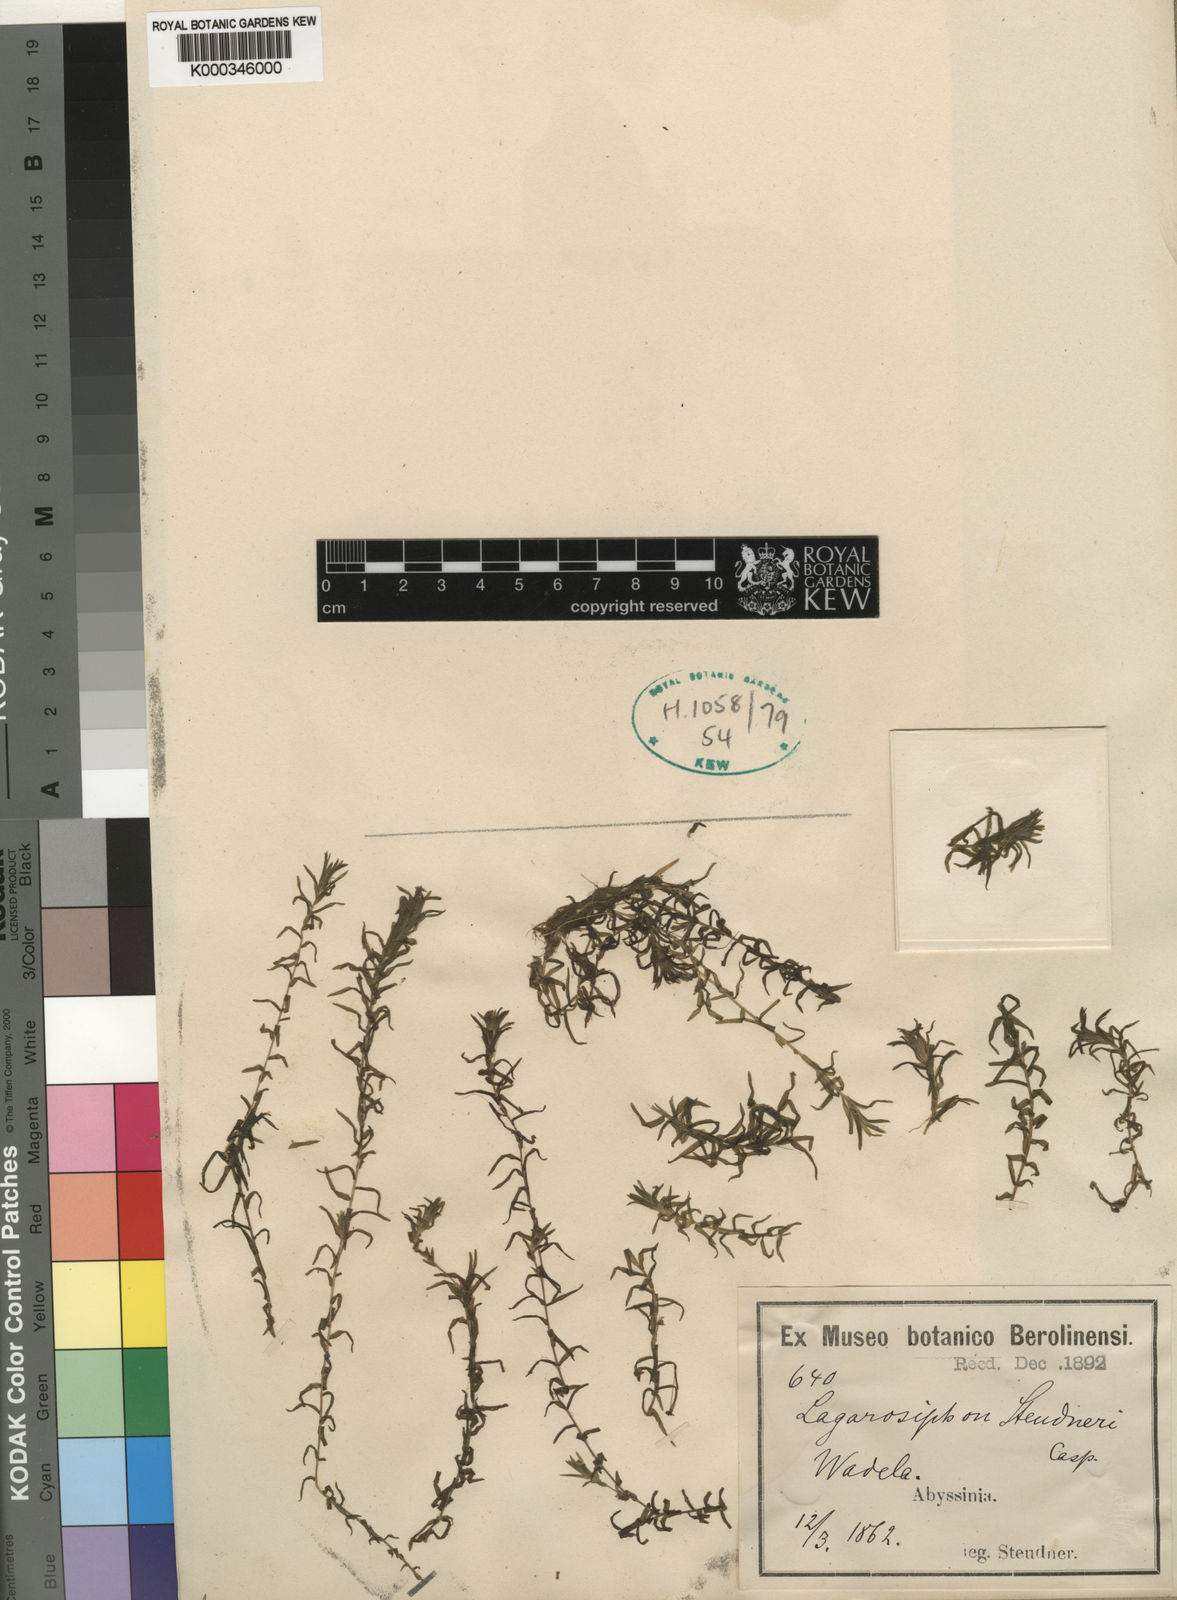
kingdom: Plantae
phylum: Tracheophyta
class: Liliopsida
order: Alismatales
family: Hydrocharitaceae
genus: Lagarosiphon
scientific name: Lagarosiphon steudneri
